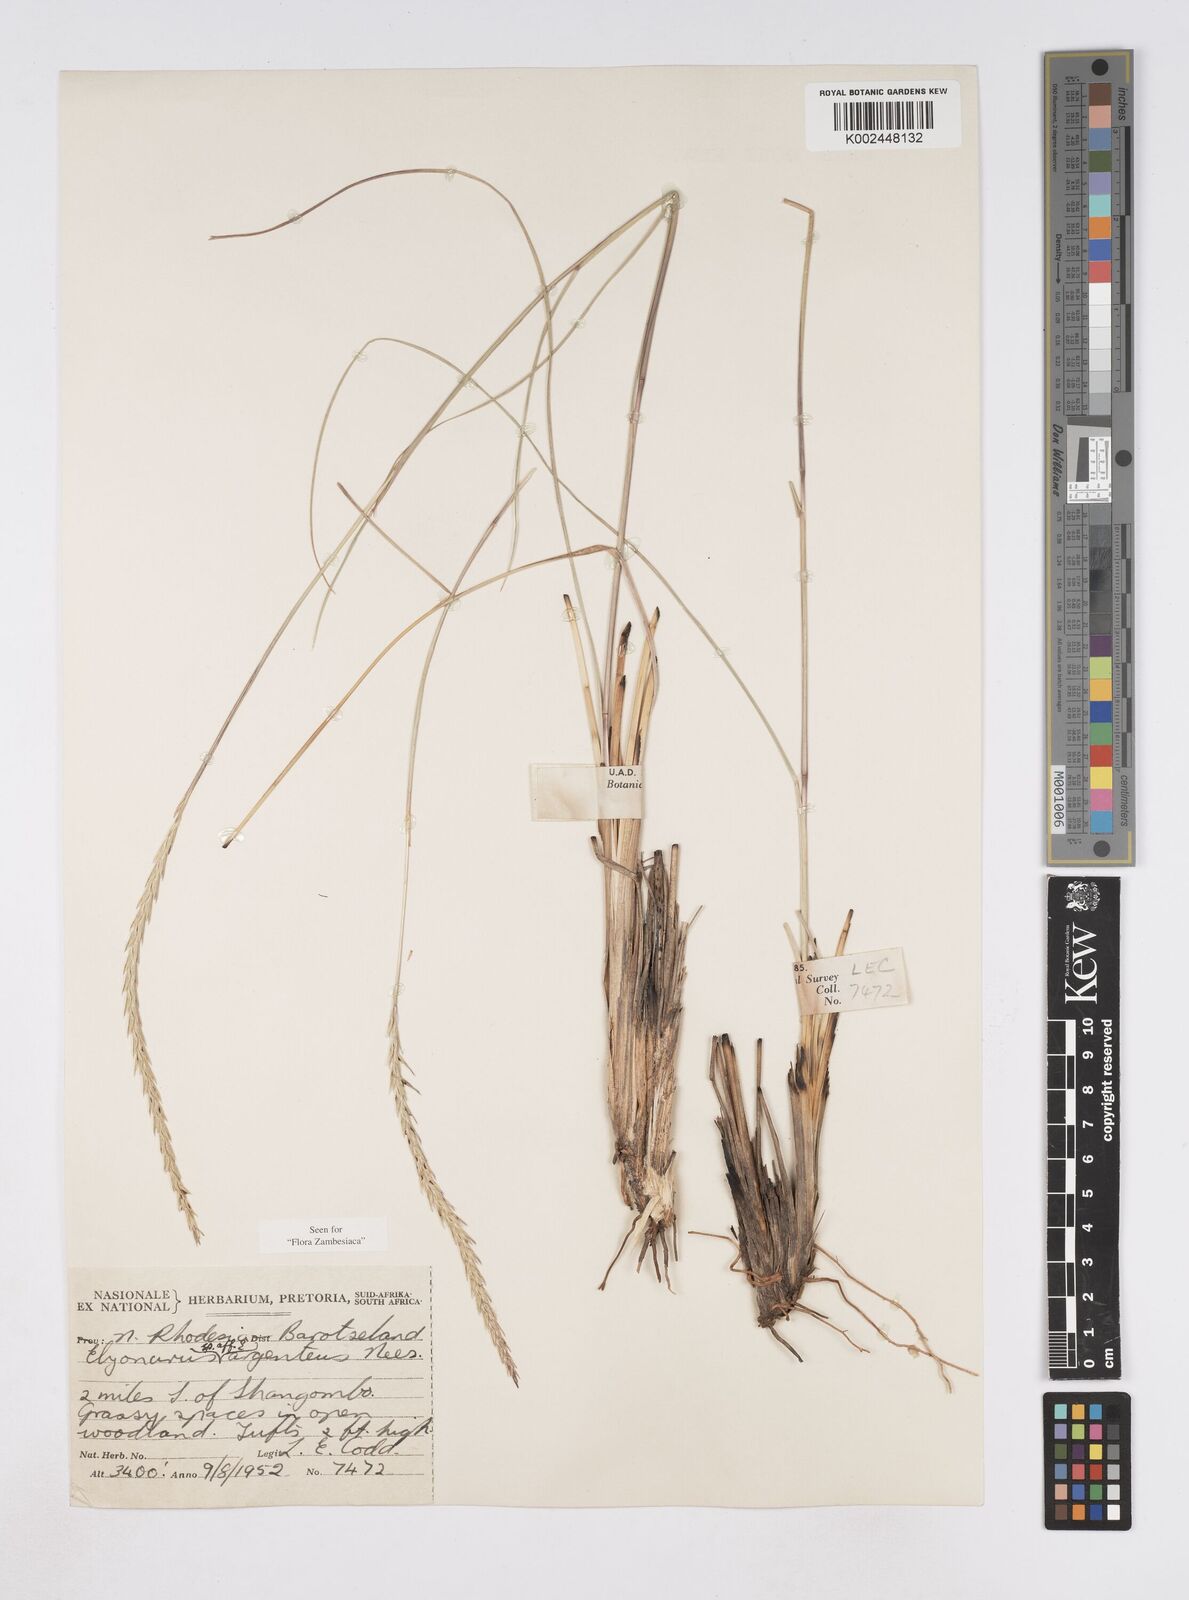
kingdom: Plantae
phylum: Tracheophyta
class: Liliopsida
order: Poales
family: Poaceae
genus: Elionurus
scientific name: Elionurus tripsacoides
